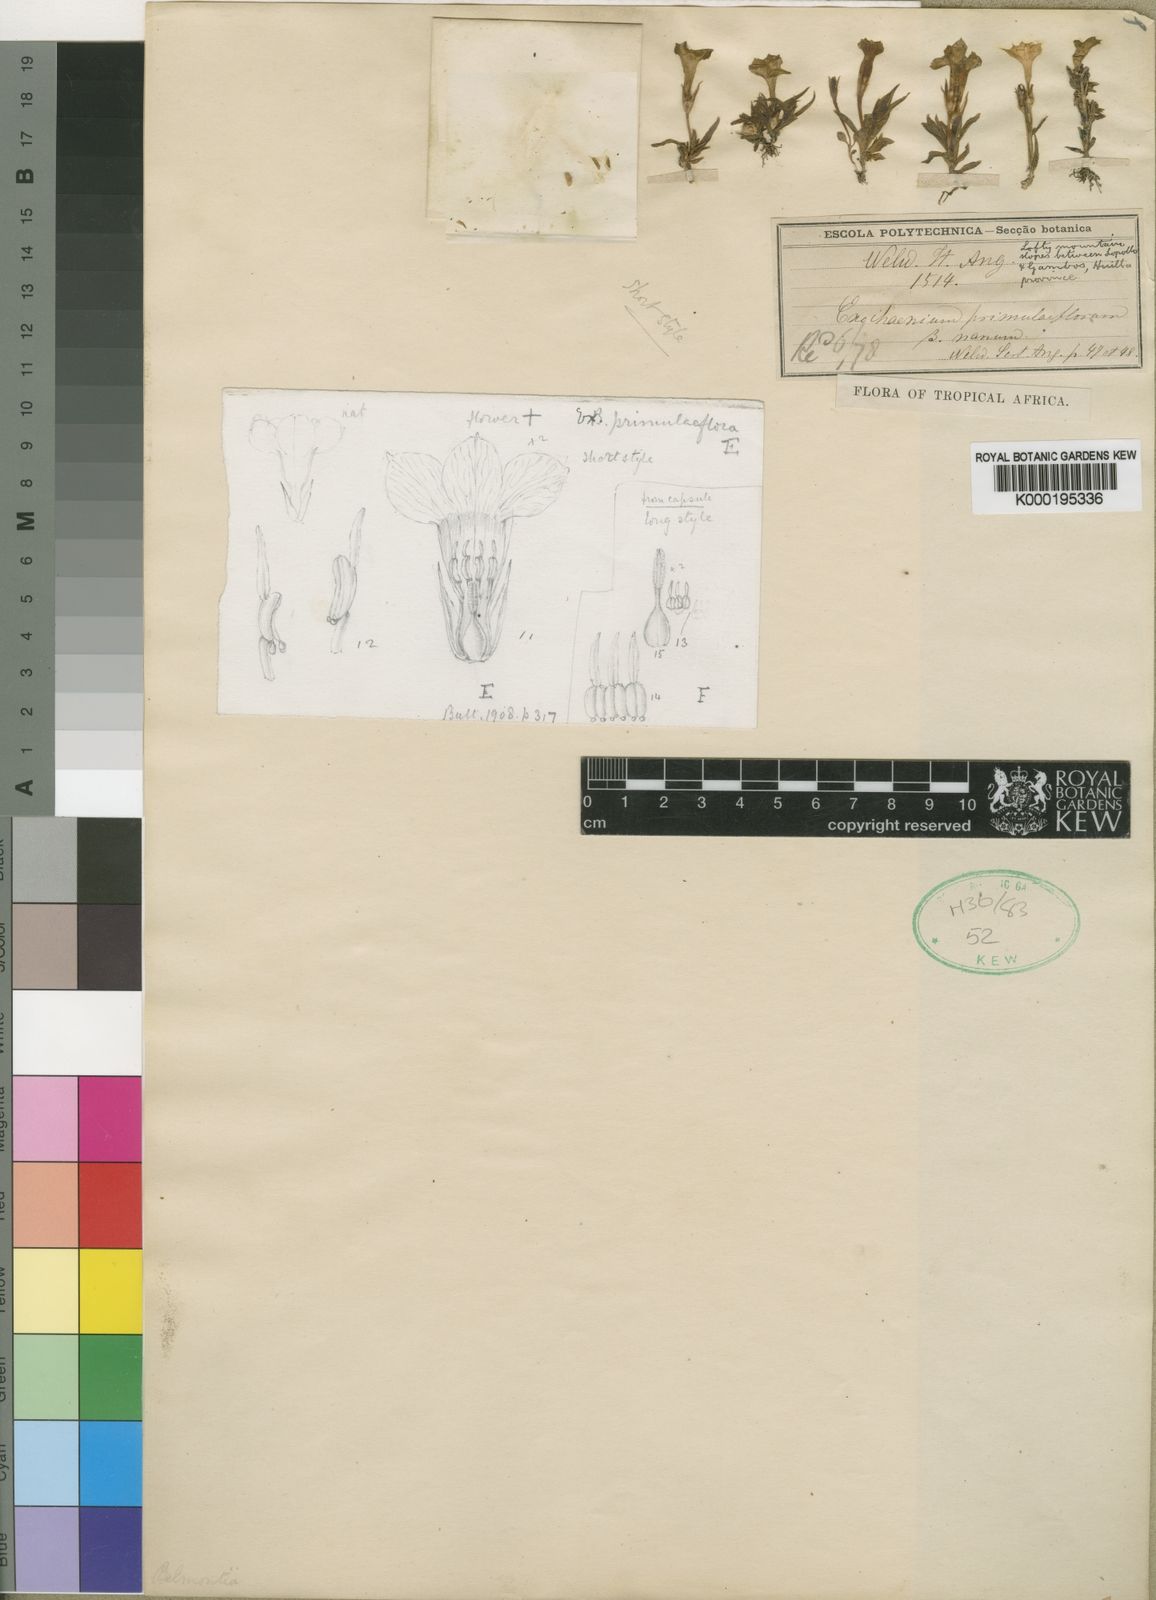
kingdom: Plantae
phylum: Tracheophyta
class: Magnoliopsida
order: Gentianales
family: Gentianaceae
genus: Exochaenium
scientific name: Exochaenium primuliflorum
